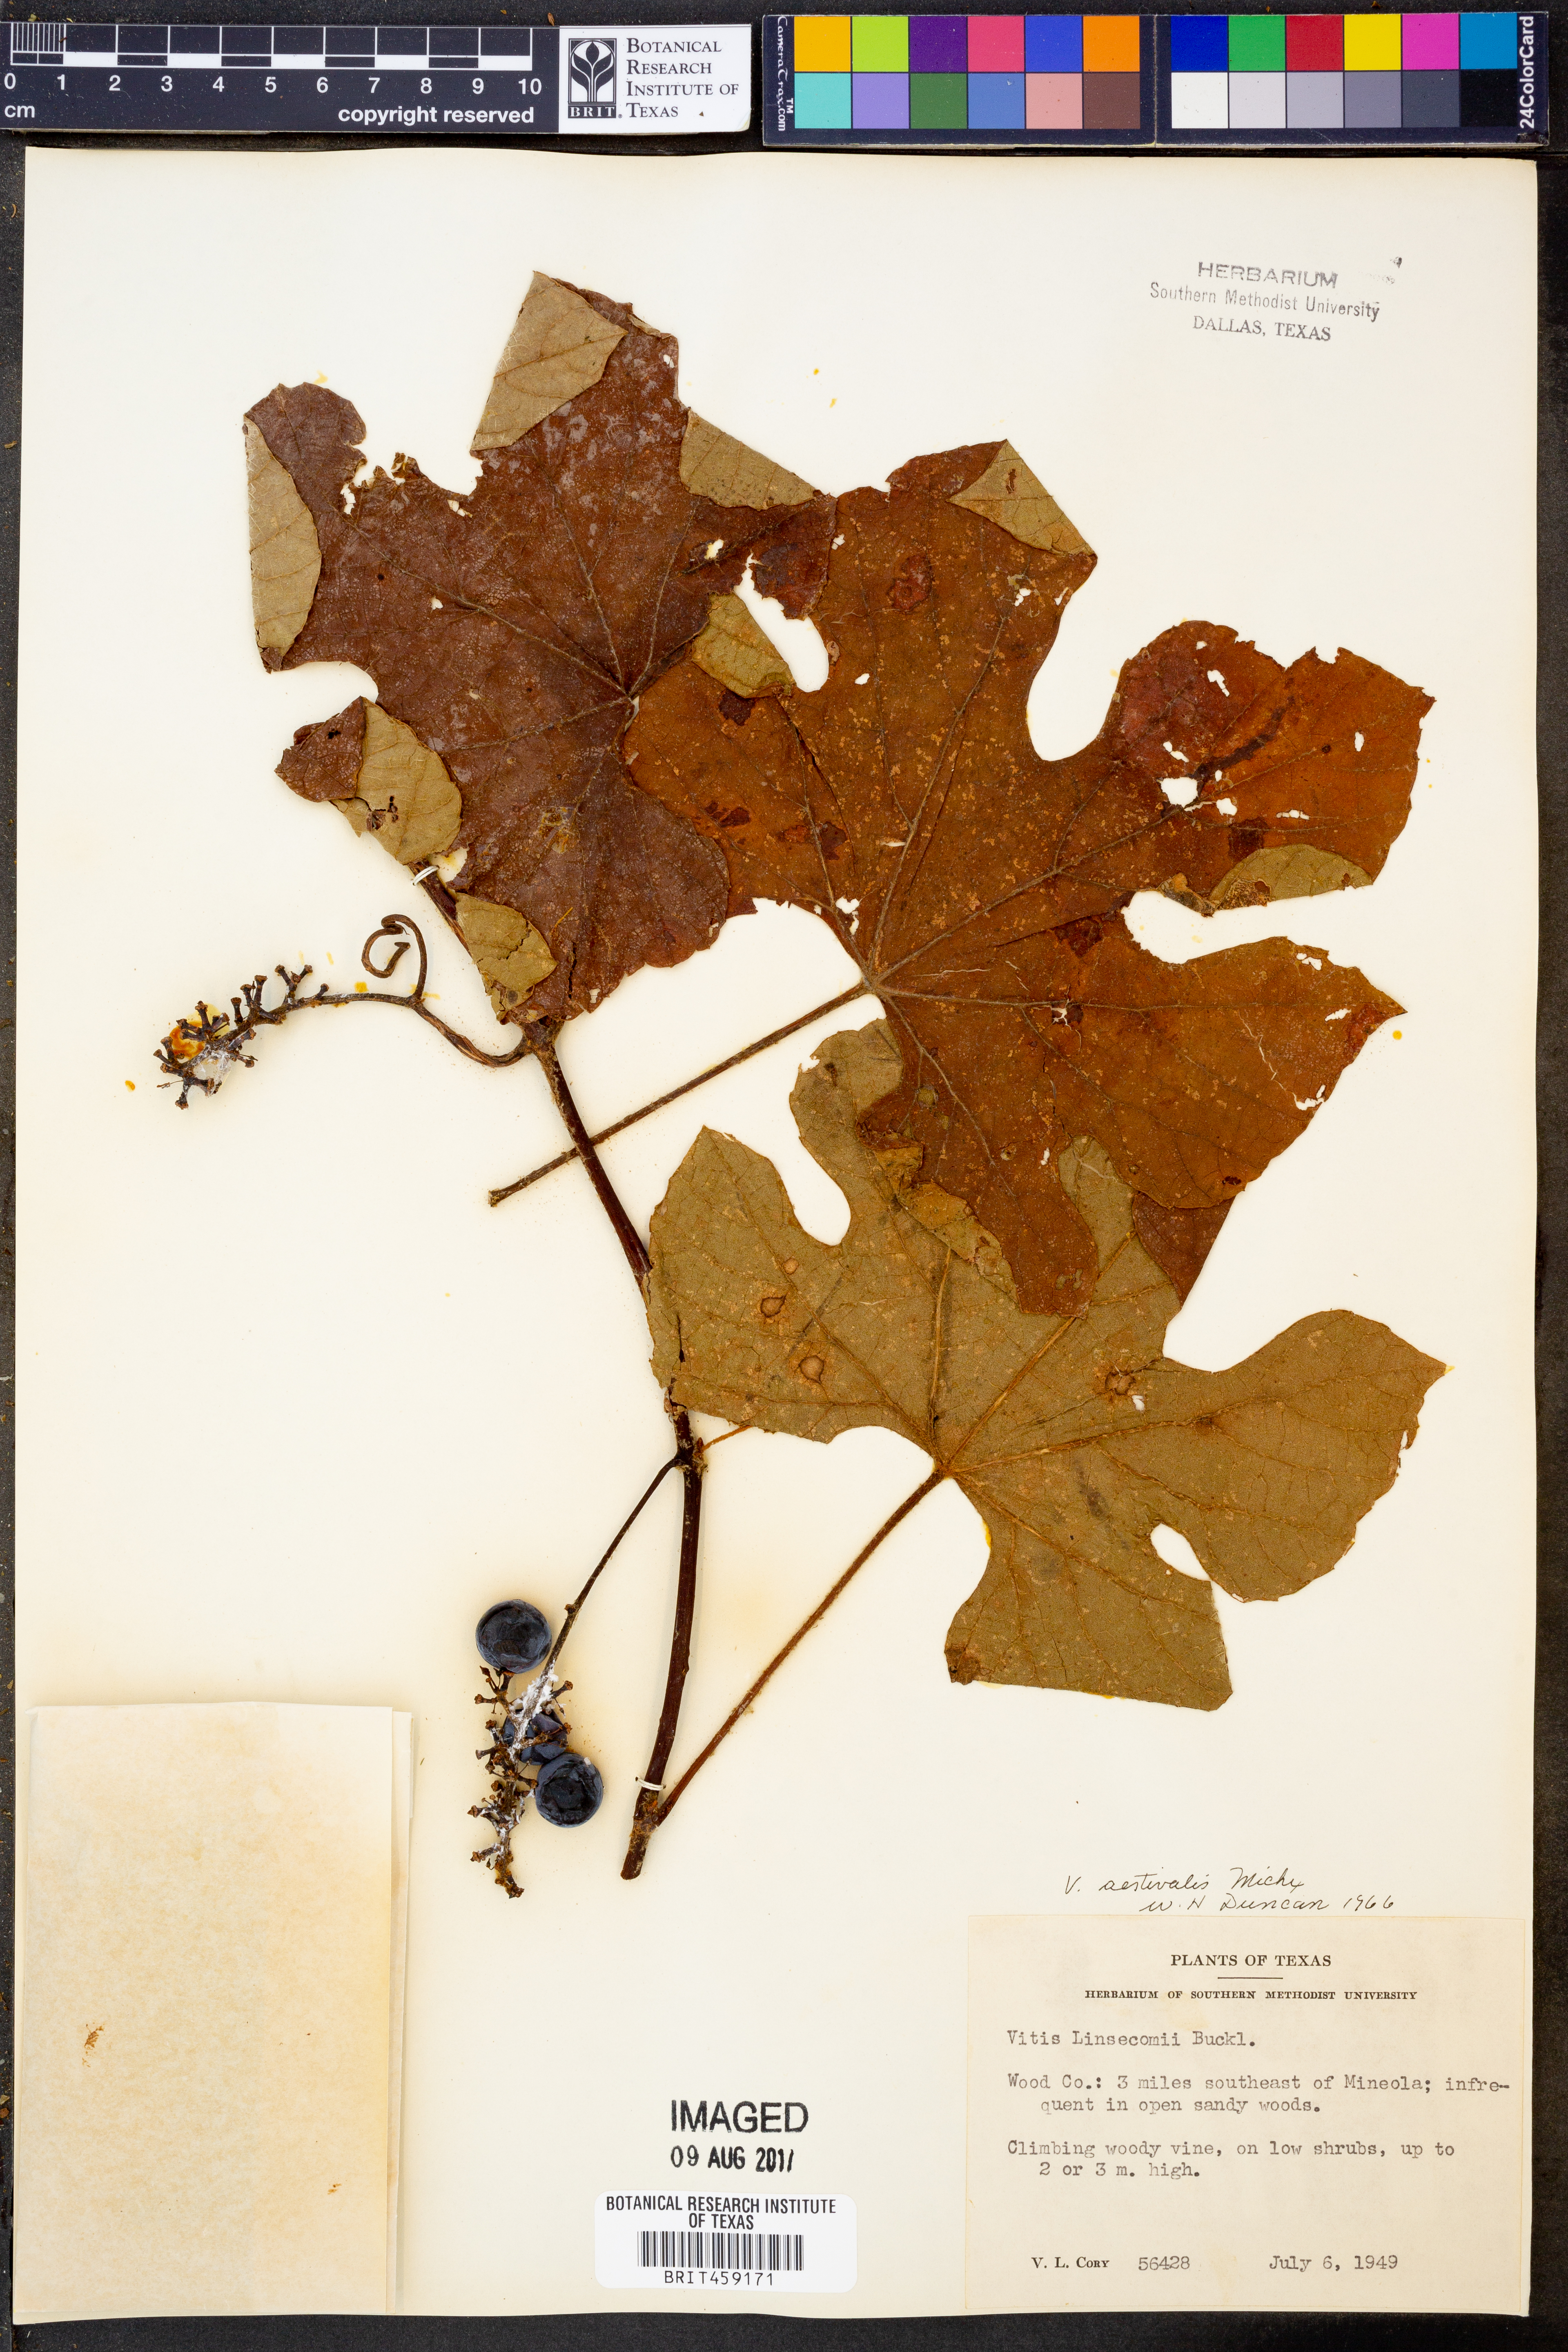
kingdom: Plantae
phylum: Tracheophyta
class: Magnoliopsida
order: Vitales
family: Vitaceae
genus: Vitis
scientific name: Vitis aestivalis
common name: Pigeon grape
